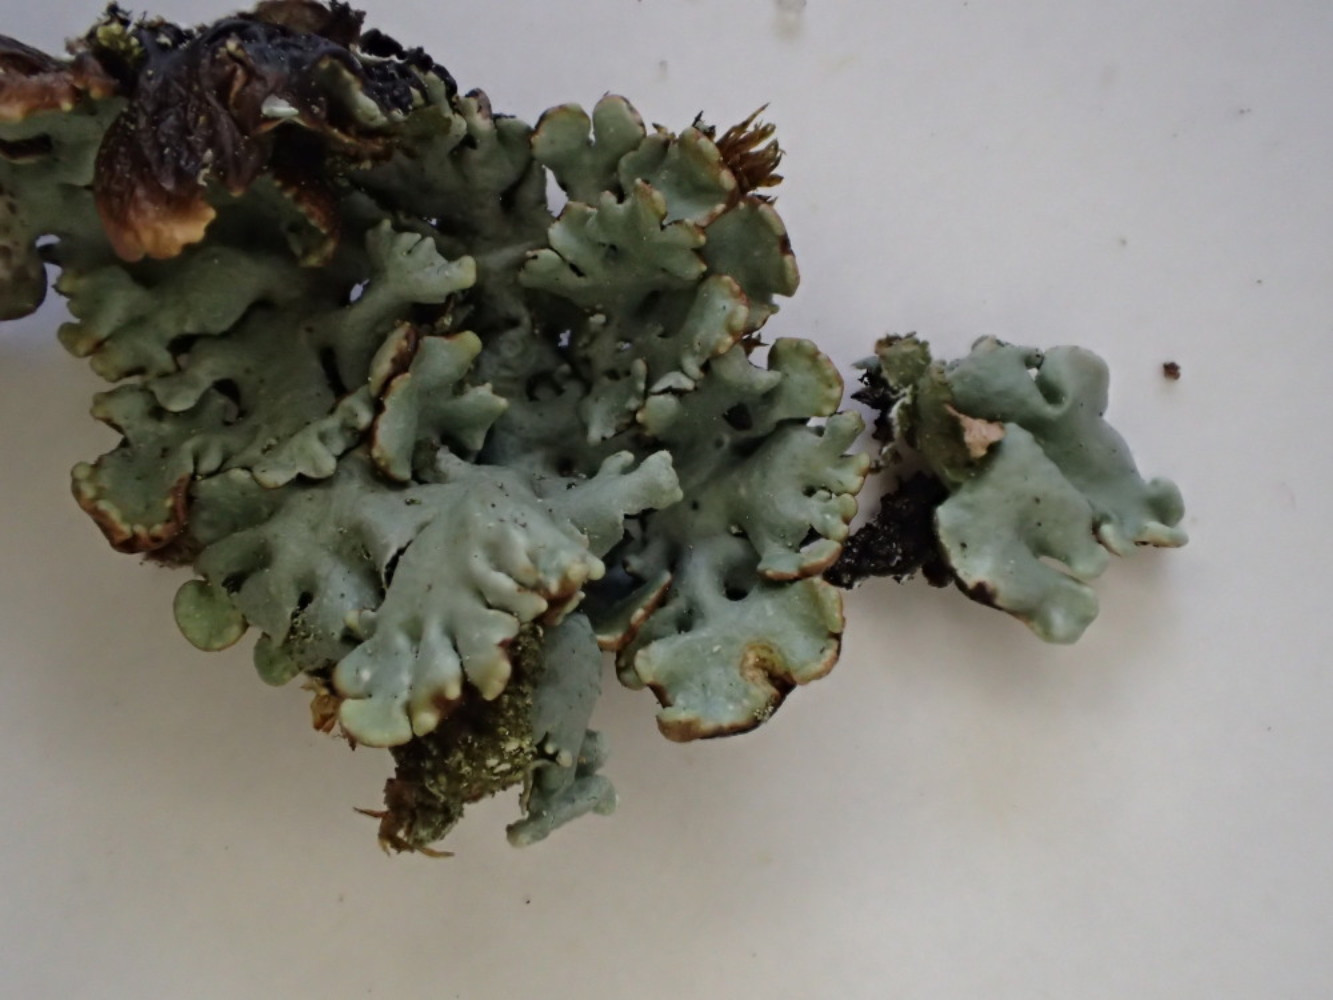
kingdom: Fungi
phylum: Ascomycota
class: Lecanoromycetes
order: Lecanorales
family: Parmeliaceae
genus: Hypogymnia
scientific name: Hypogymnia physodes
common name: almindelig kvistlav
